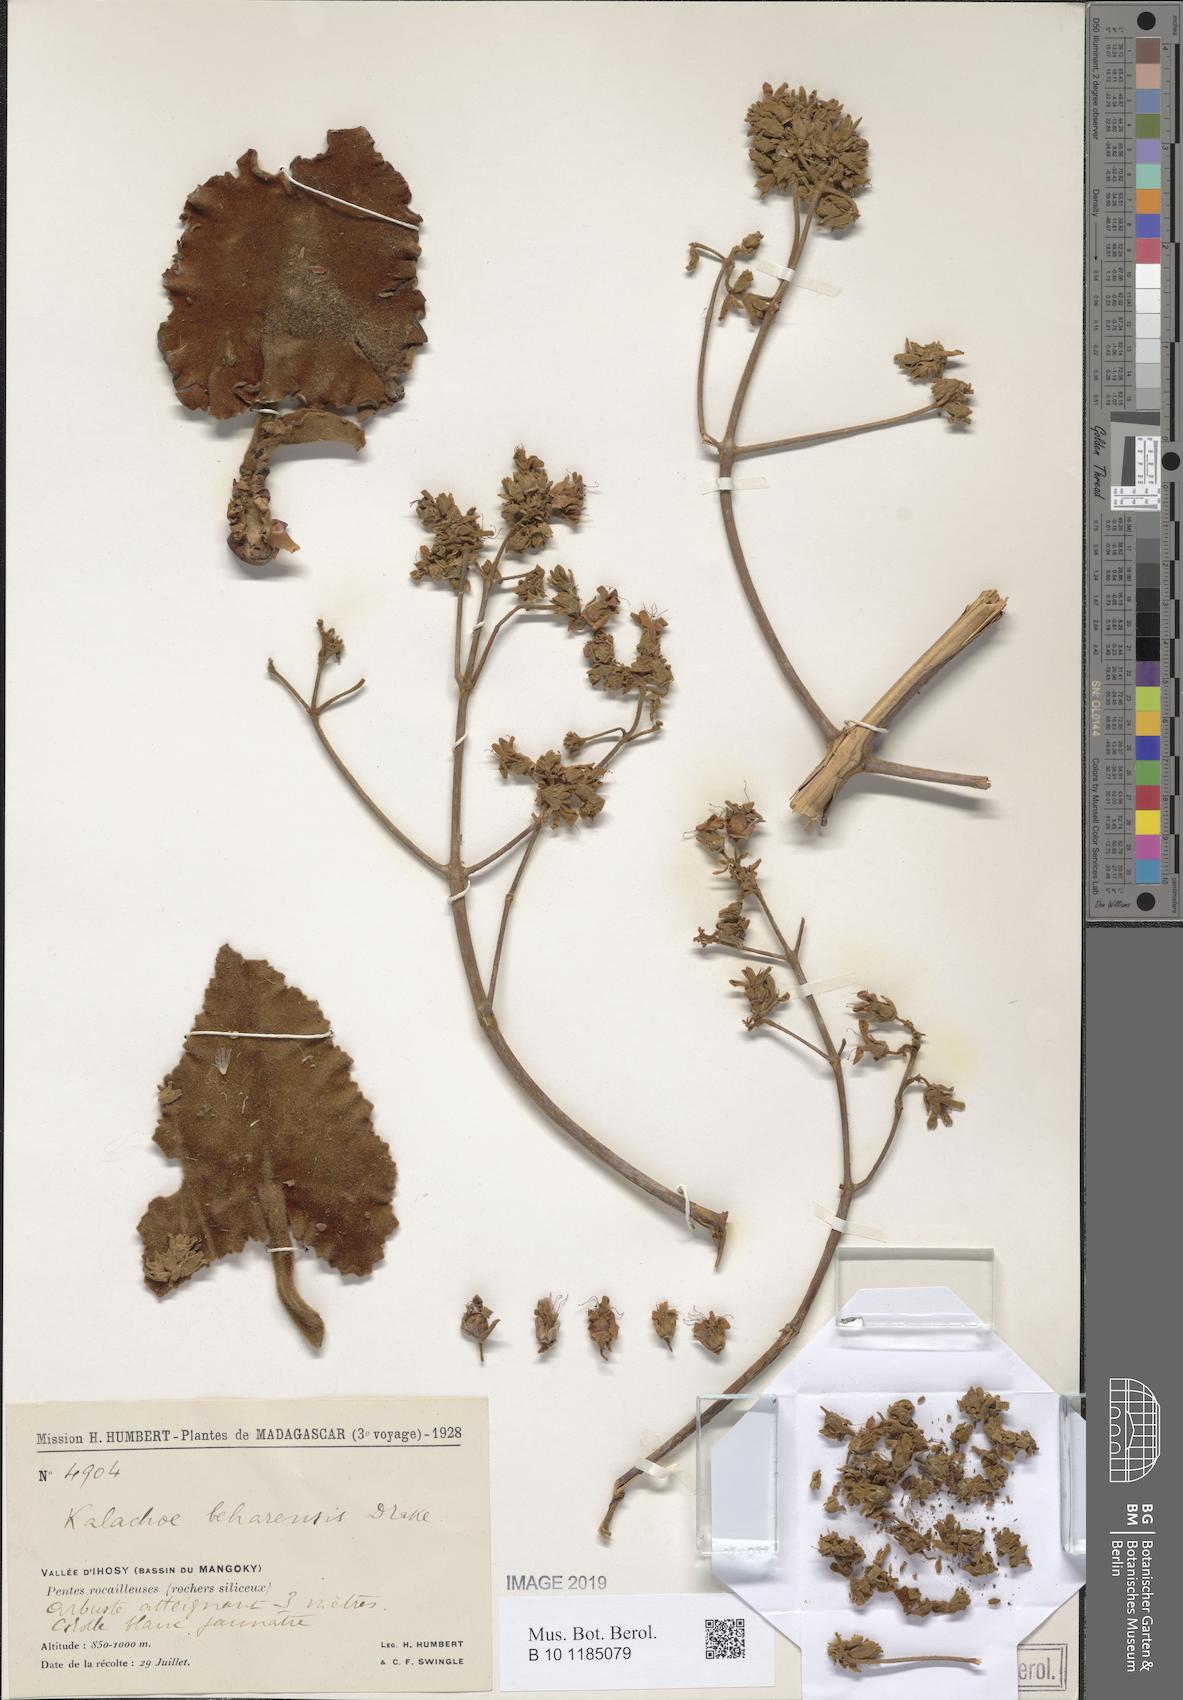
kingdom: Plantae
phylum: Tracheophyta
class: Magnoliopsida
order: Saxifragales
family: Crassulaceae
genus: Kalanchoe
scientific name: Kalanchoe beharensis
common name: Velvet leaf
